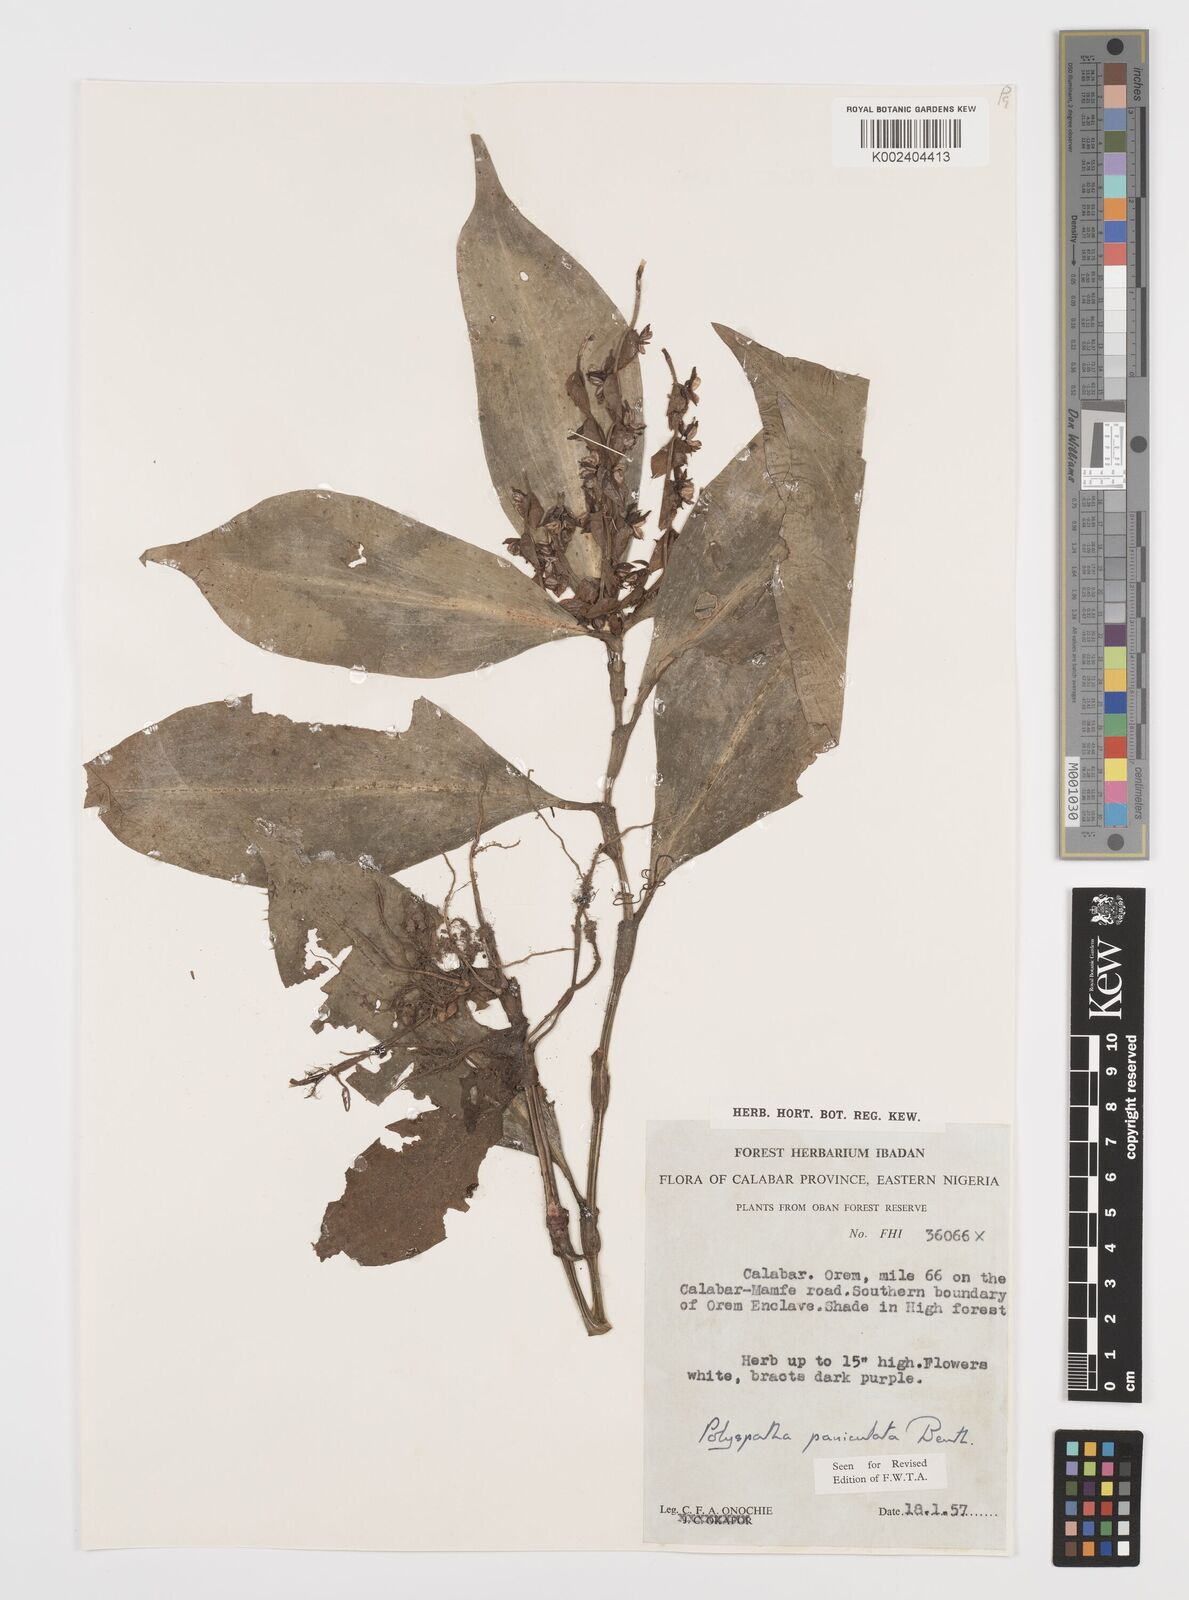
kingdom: Plantae
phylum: Tracheophyta
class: Liliopsida
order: Commelinales
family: Commelinaceae
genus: Polyspatha
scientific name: Polyspatha paniculata
